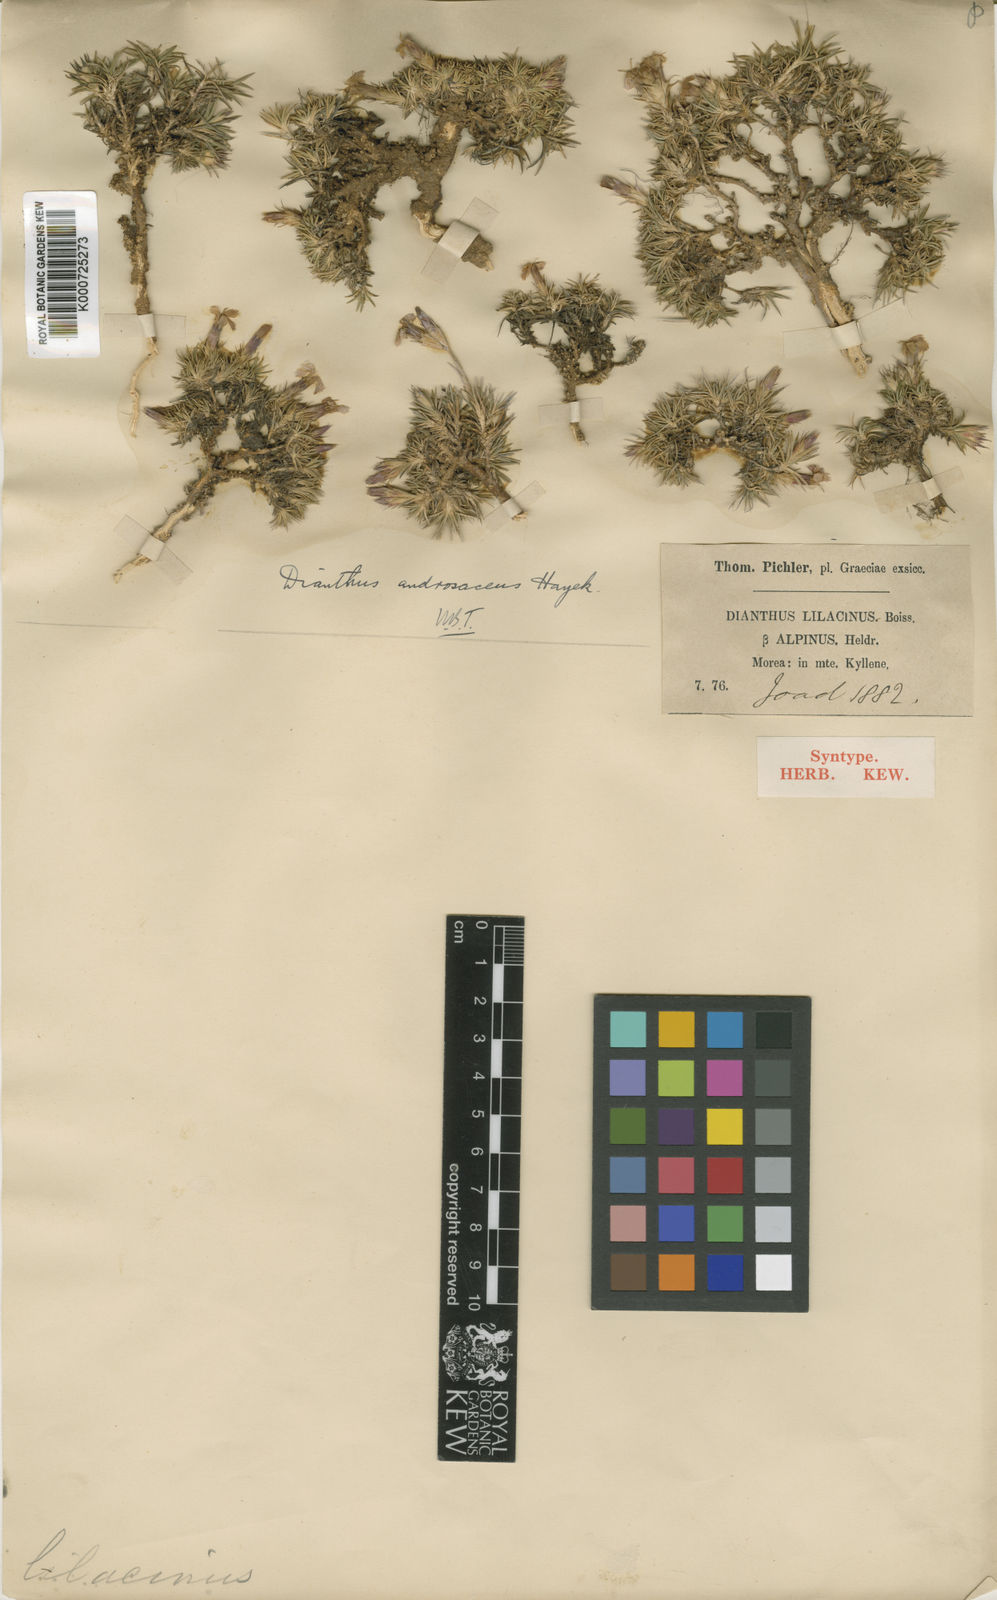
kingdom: Plantae
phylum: Tracheophyta
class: Magnoliopsida
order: Caryophyllales
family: Caryophyllaceae
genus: Dianthus
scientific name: Dianthus pinifolius
